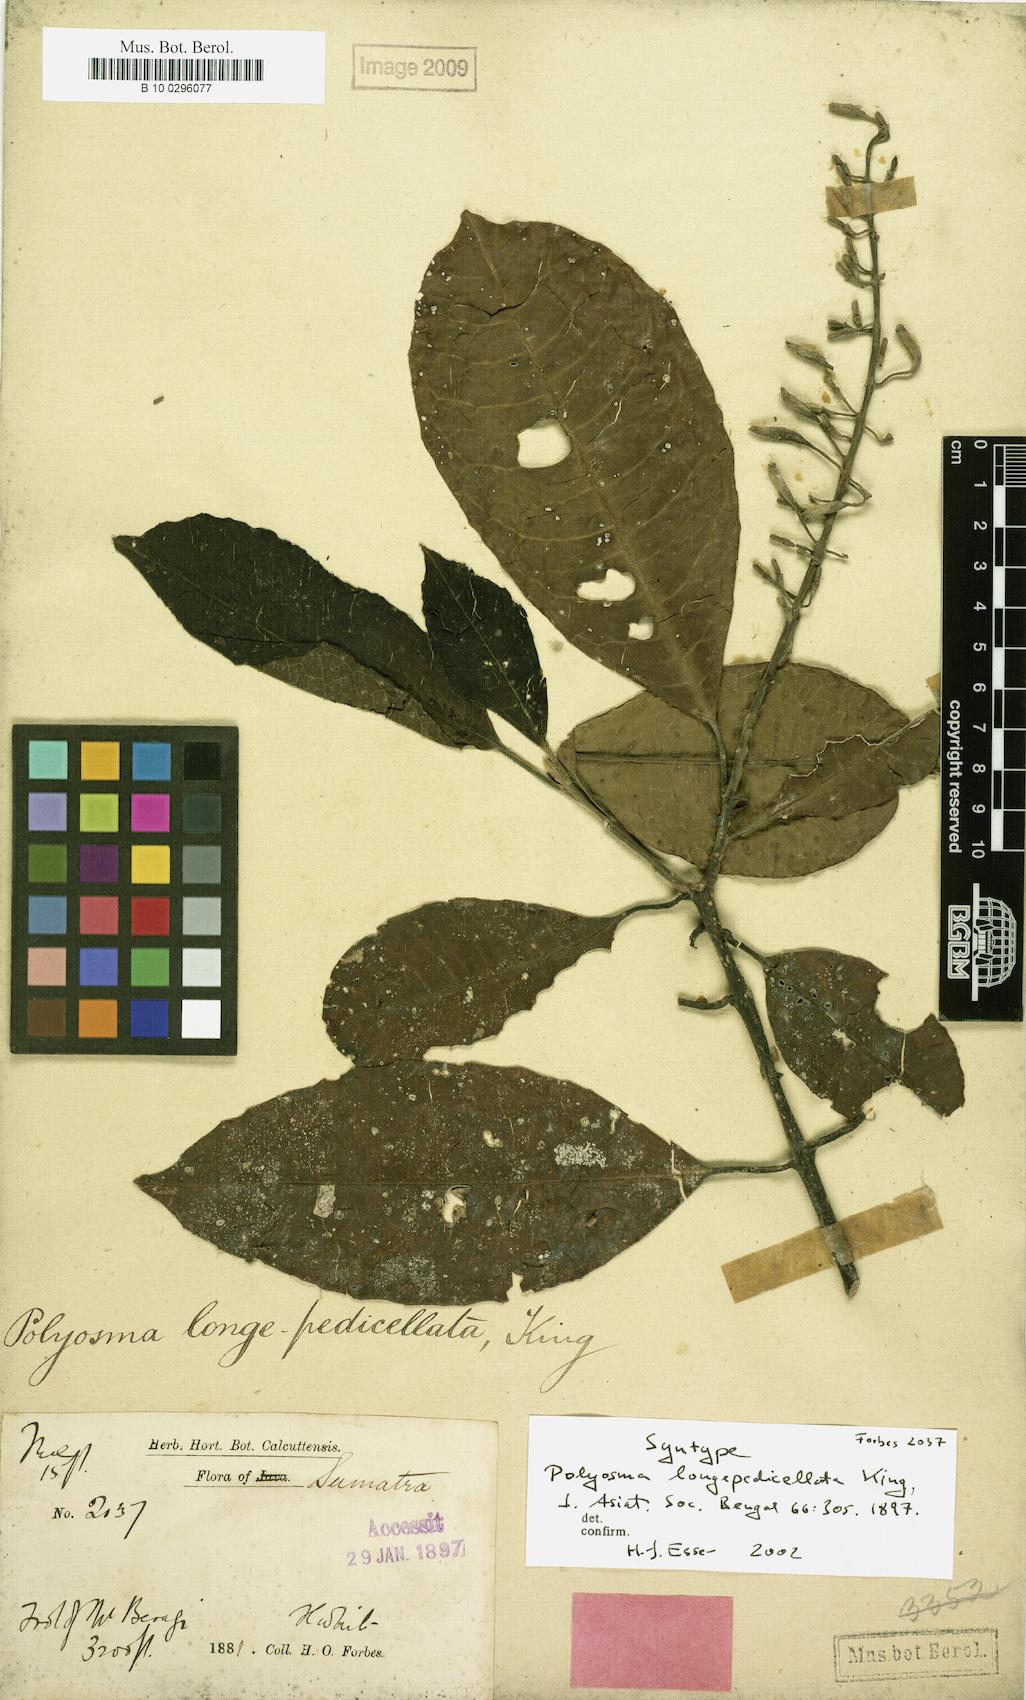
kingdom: Plantae
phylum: Tracheophyta
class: Magnoliopsida
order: Escalloniales
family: Escalloniaceae
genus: Polyosma
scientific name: Polyosma longepedicellata
